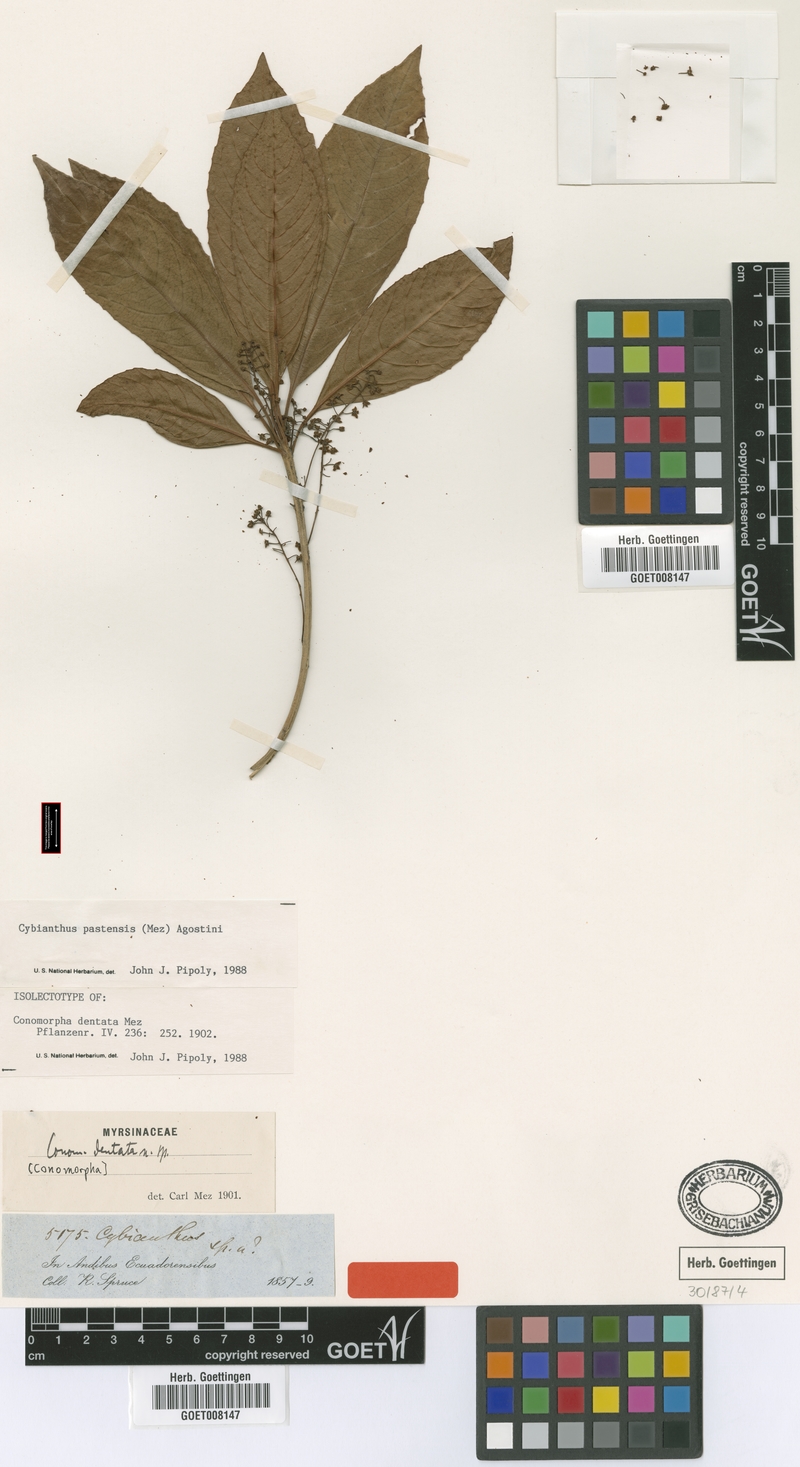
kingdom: Plantae
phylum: Tracheophyta
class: Magnoliopsida
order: Ericales
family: Primulaceae
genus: Cybianthus
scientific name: Cybianthus pastensis
